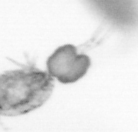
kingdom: Animalia
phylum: Arthropoda
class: Copepoda
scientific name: Copepoda
